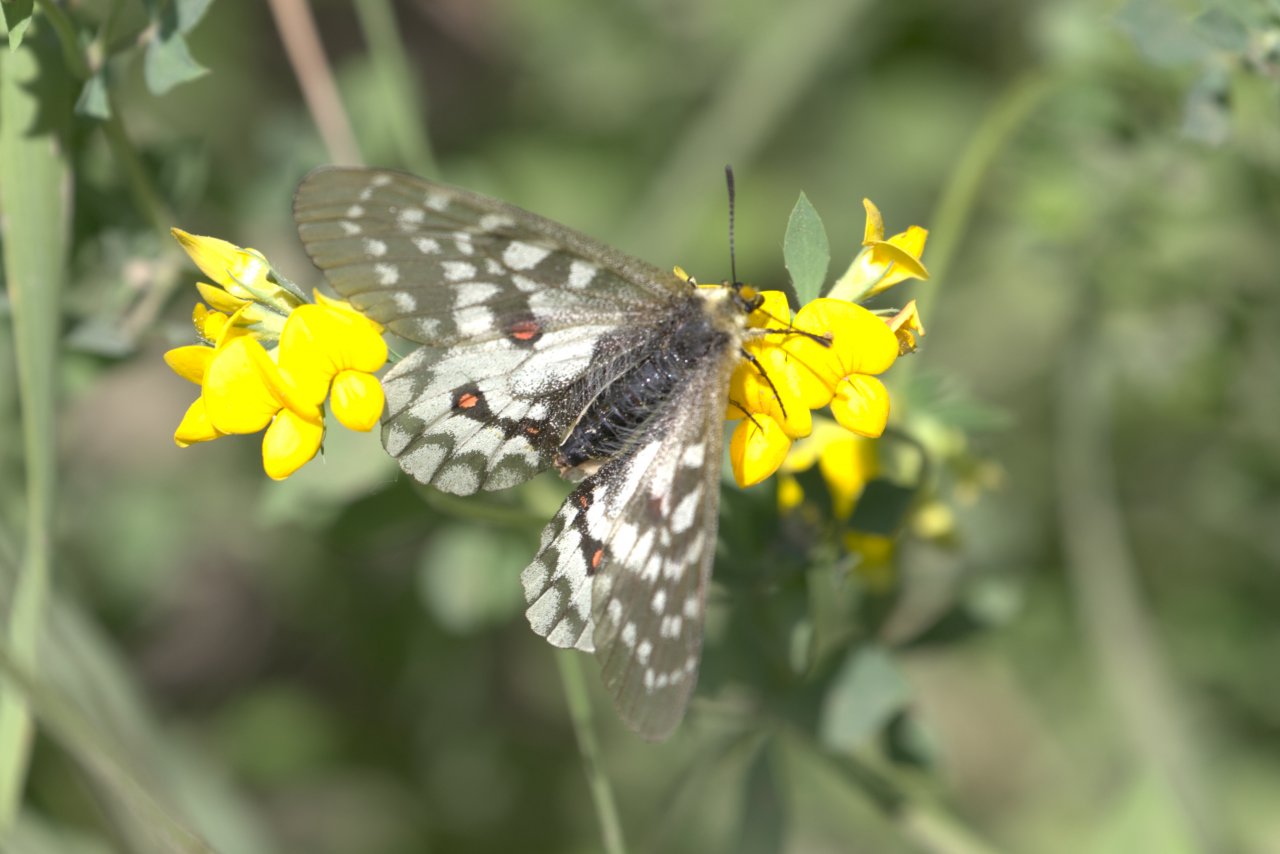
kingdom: Animalia
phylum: Arthropoda
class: Insecta
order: Lepidoptera
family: Papilionidae
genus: Parnassius
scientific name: Parnassius clodius
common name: Clodius Parnassian
